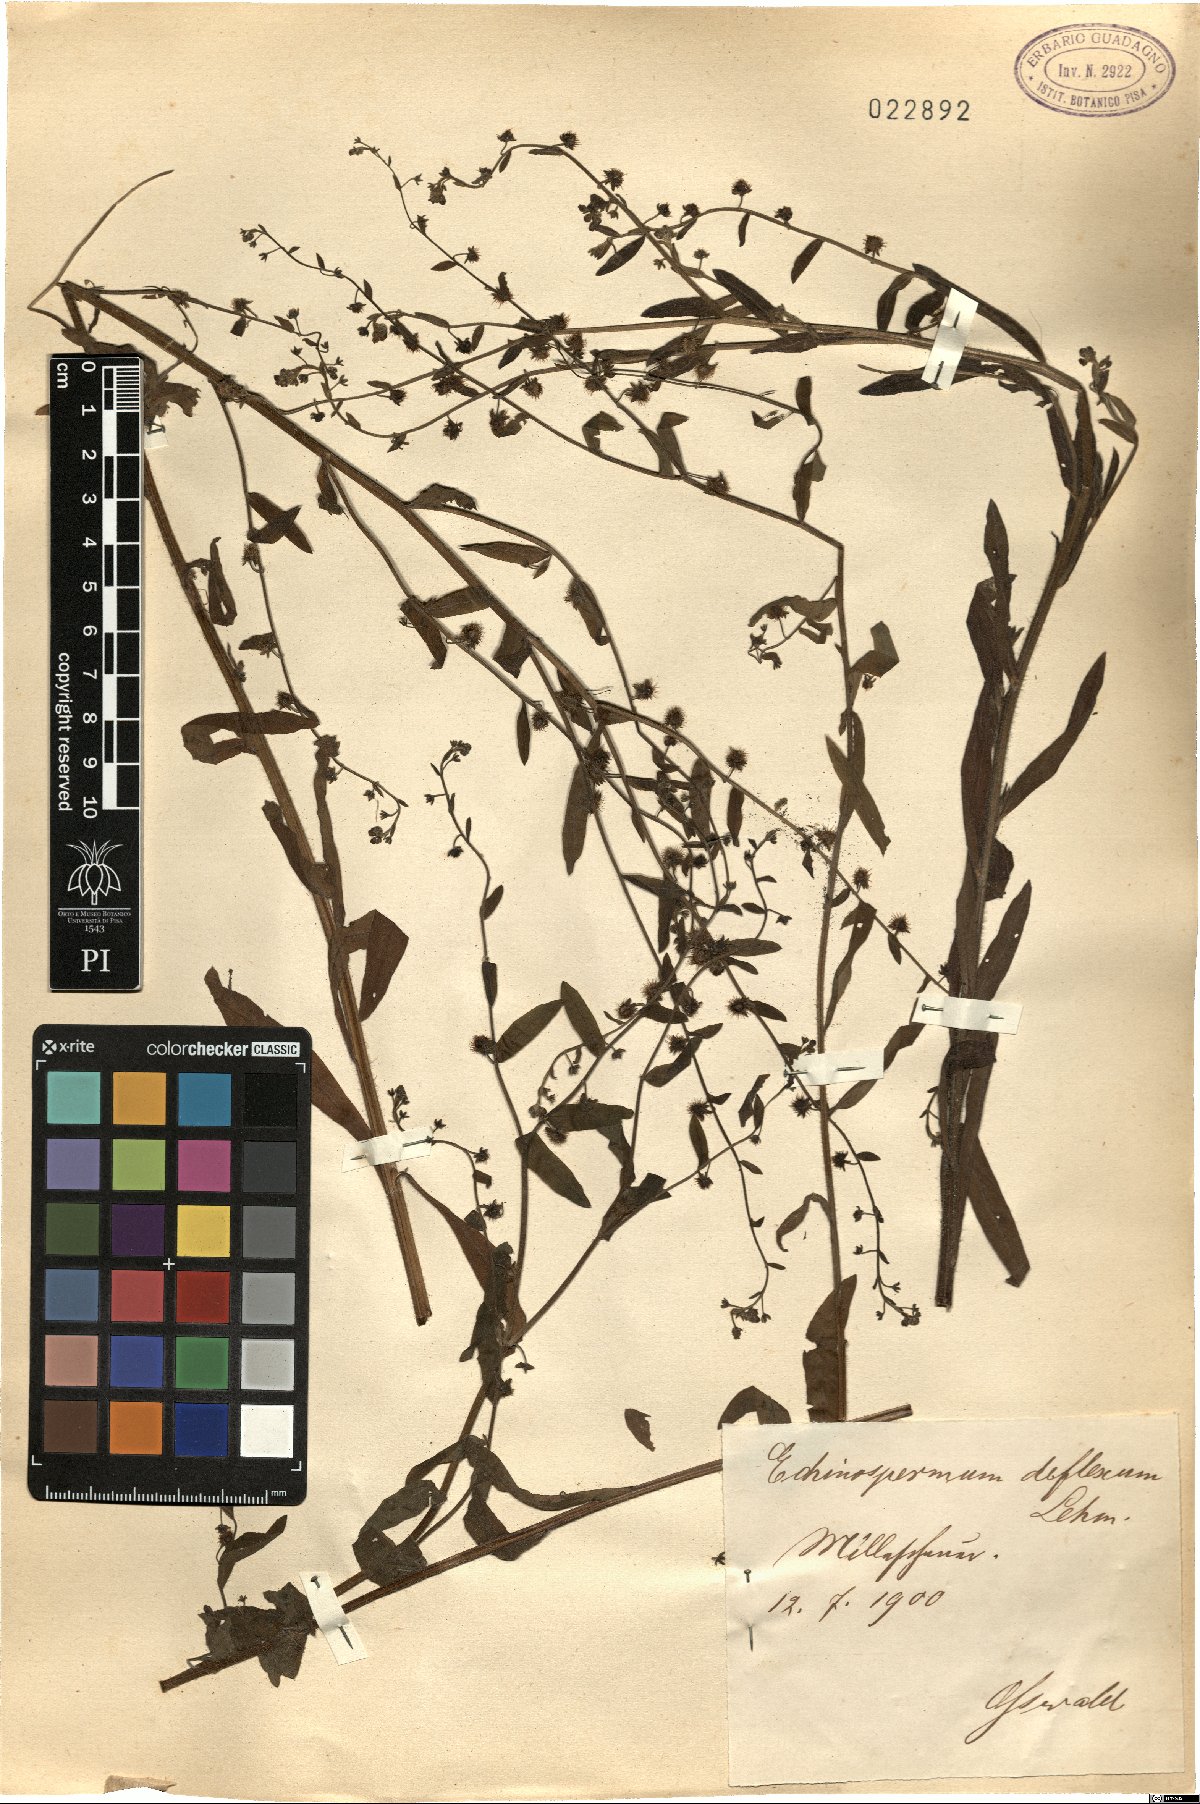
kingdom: Plantae
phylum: Tracheophyta
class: Magnoliopsida
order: Boraginales
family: Boraginaceae
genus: Hackelia
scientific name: Hackelia deflexa
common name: Nodding stickseed
